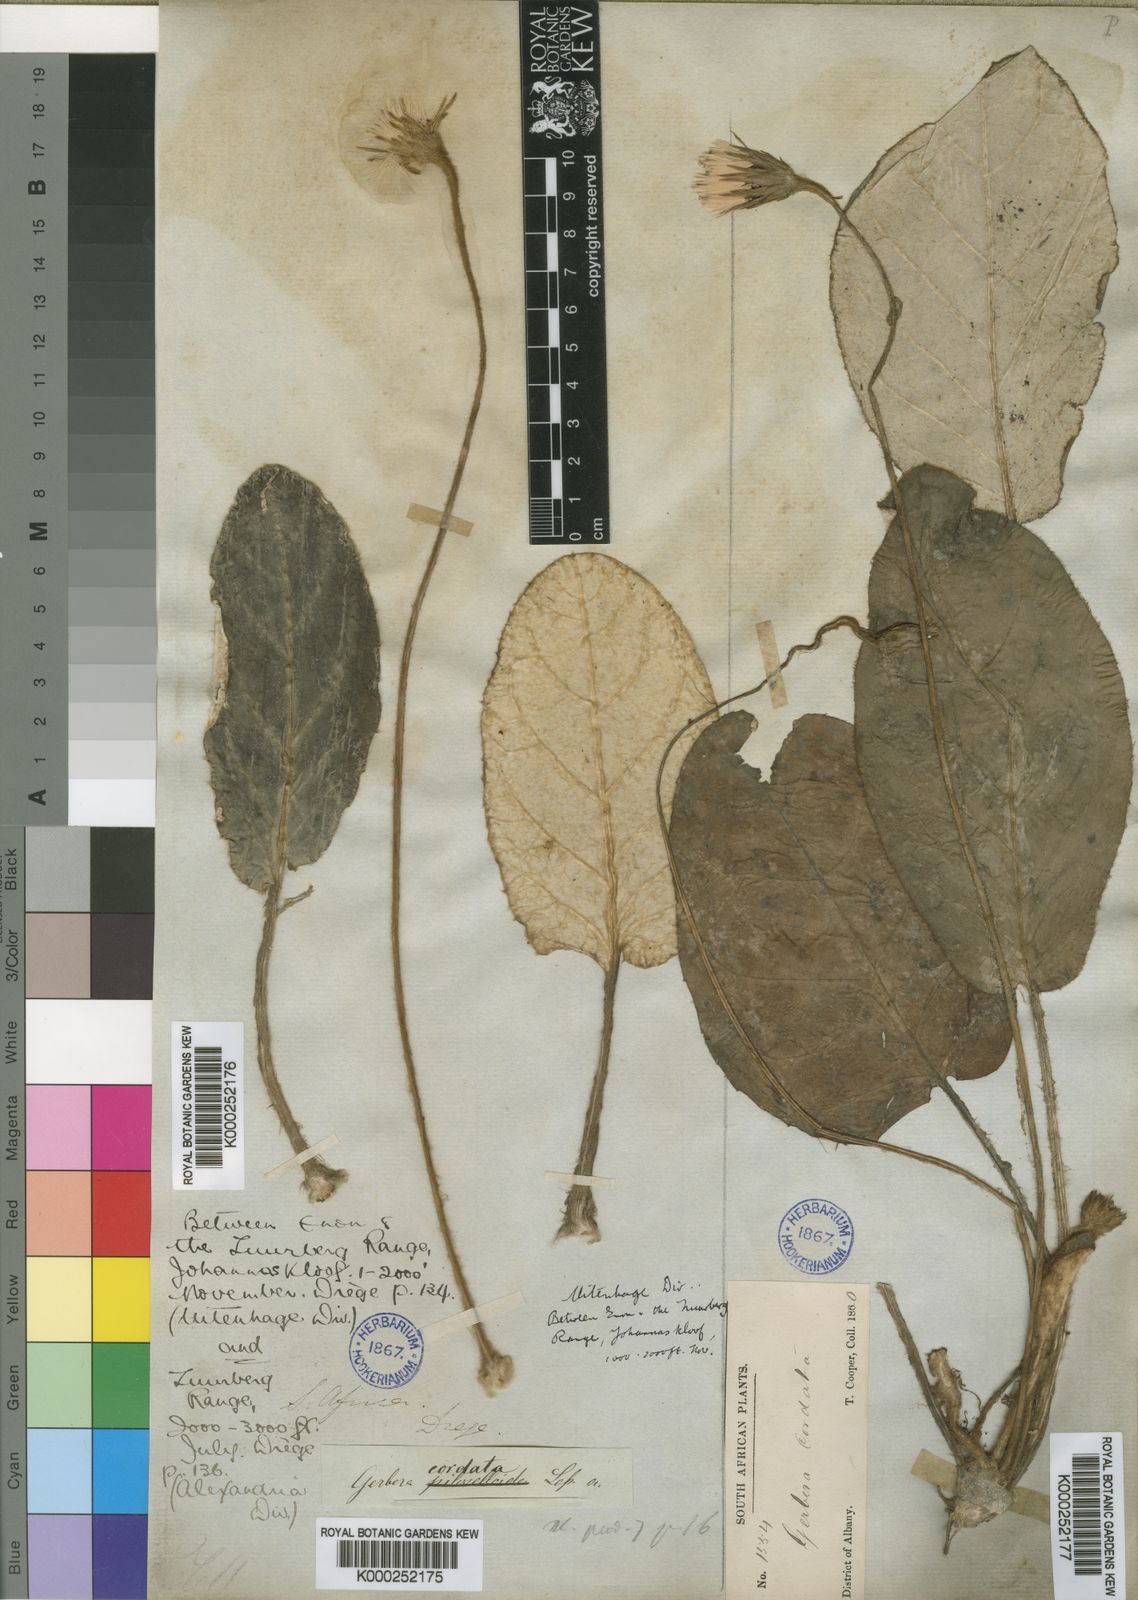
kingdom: Plantae
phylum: Tracheophyta
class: Magnoliopsida
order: Asterales
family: Asteraceae
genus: Piloselloides
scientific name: Piloselloides cordata
